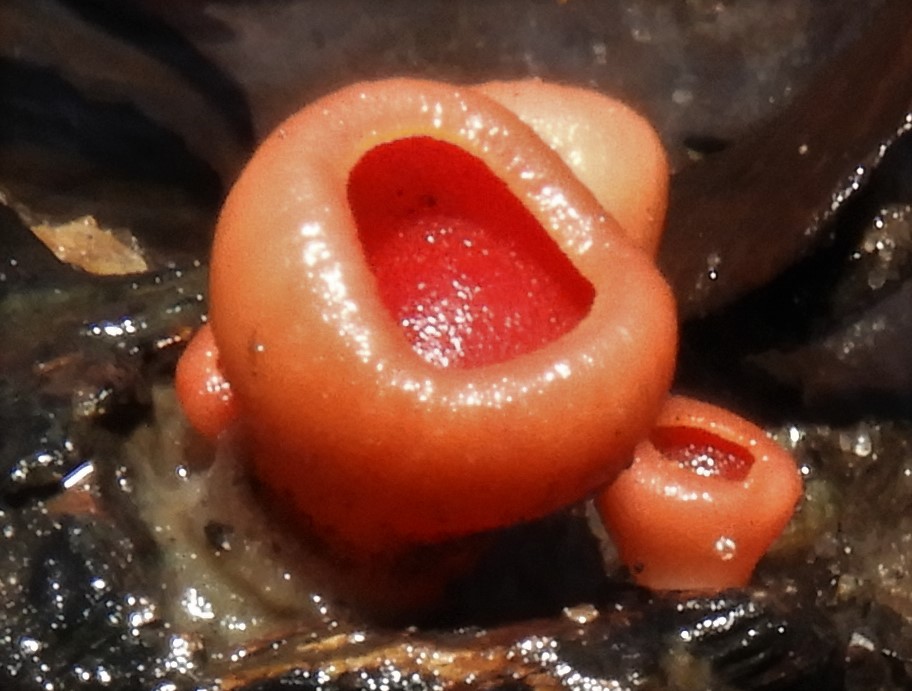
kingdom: Fungi
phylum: Ascomycota
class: Pezizomycetes
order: Pezizales
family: Sarcoscyphaceae
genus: Sarcoscypha
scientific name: Sarcoscypha austriaca
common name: krølhåret pragtbæger
